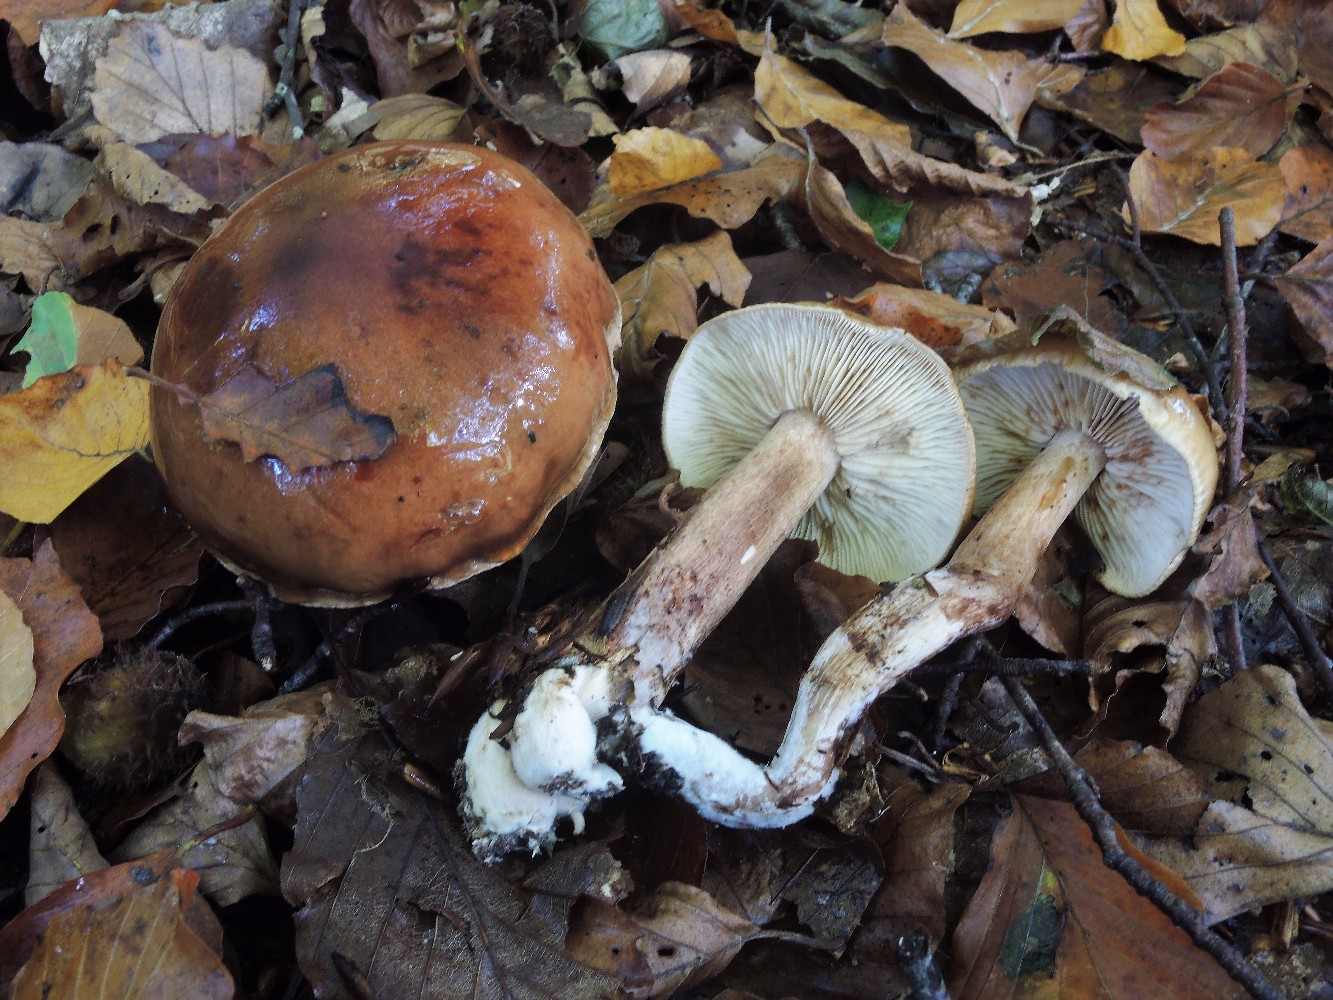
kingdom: Fungi
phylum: Basidiomycota
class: Agaricomycetes
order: Agaricales
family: Tricholomataceae
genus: Tricholoma
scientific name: Tricholoma ustale
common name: sveden ridderhat
